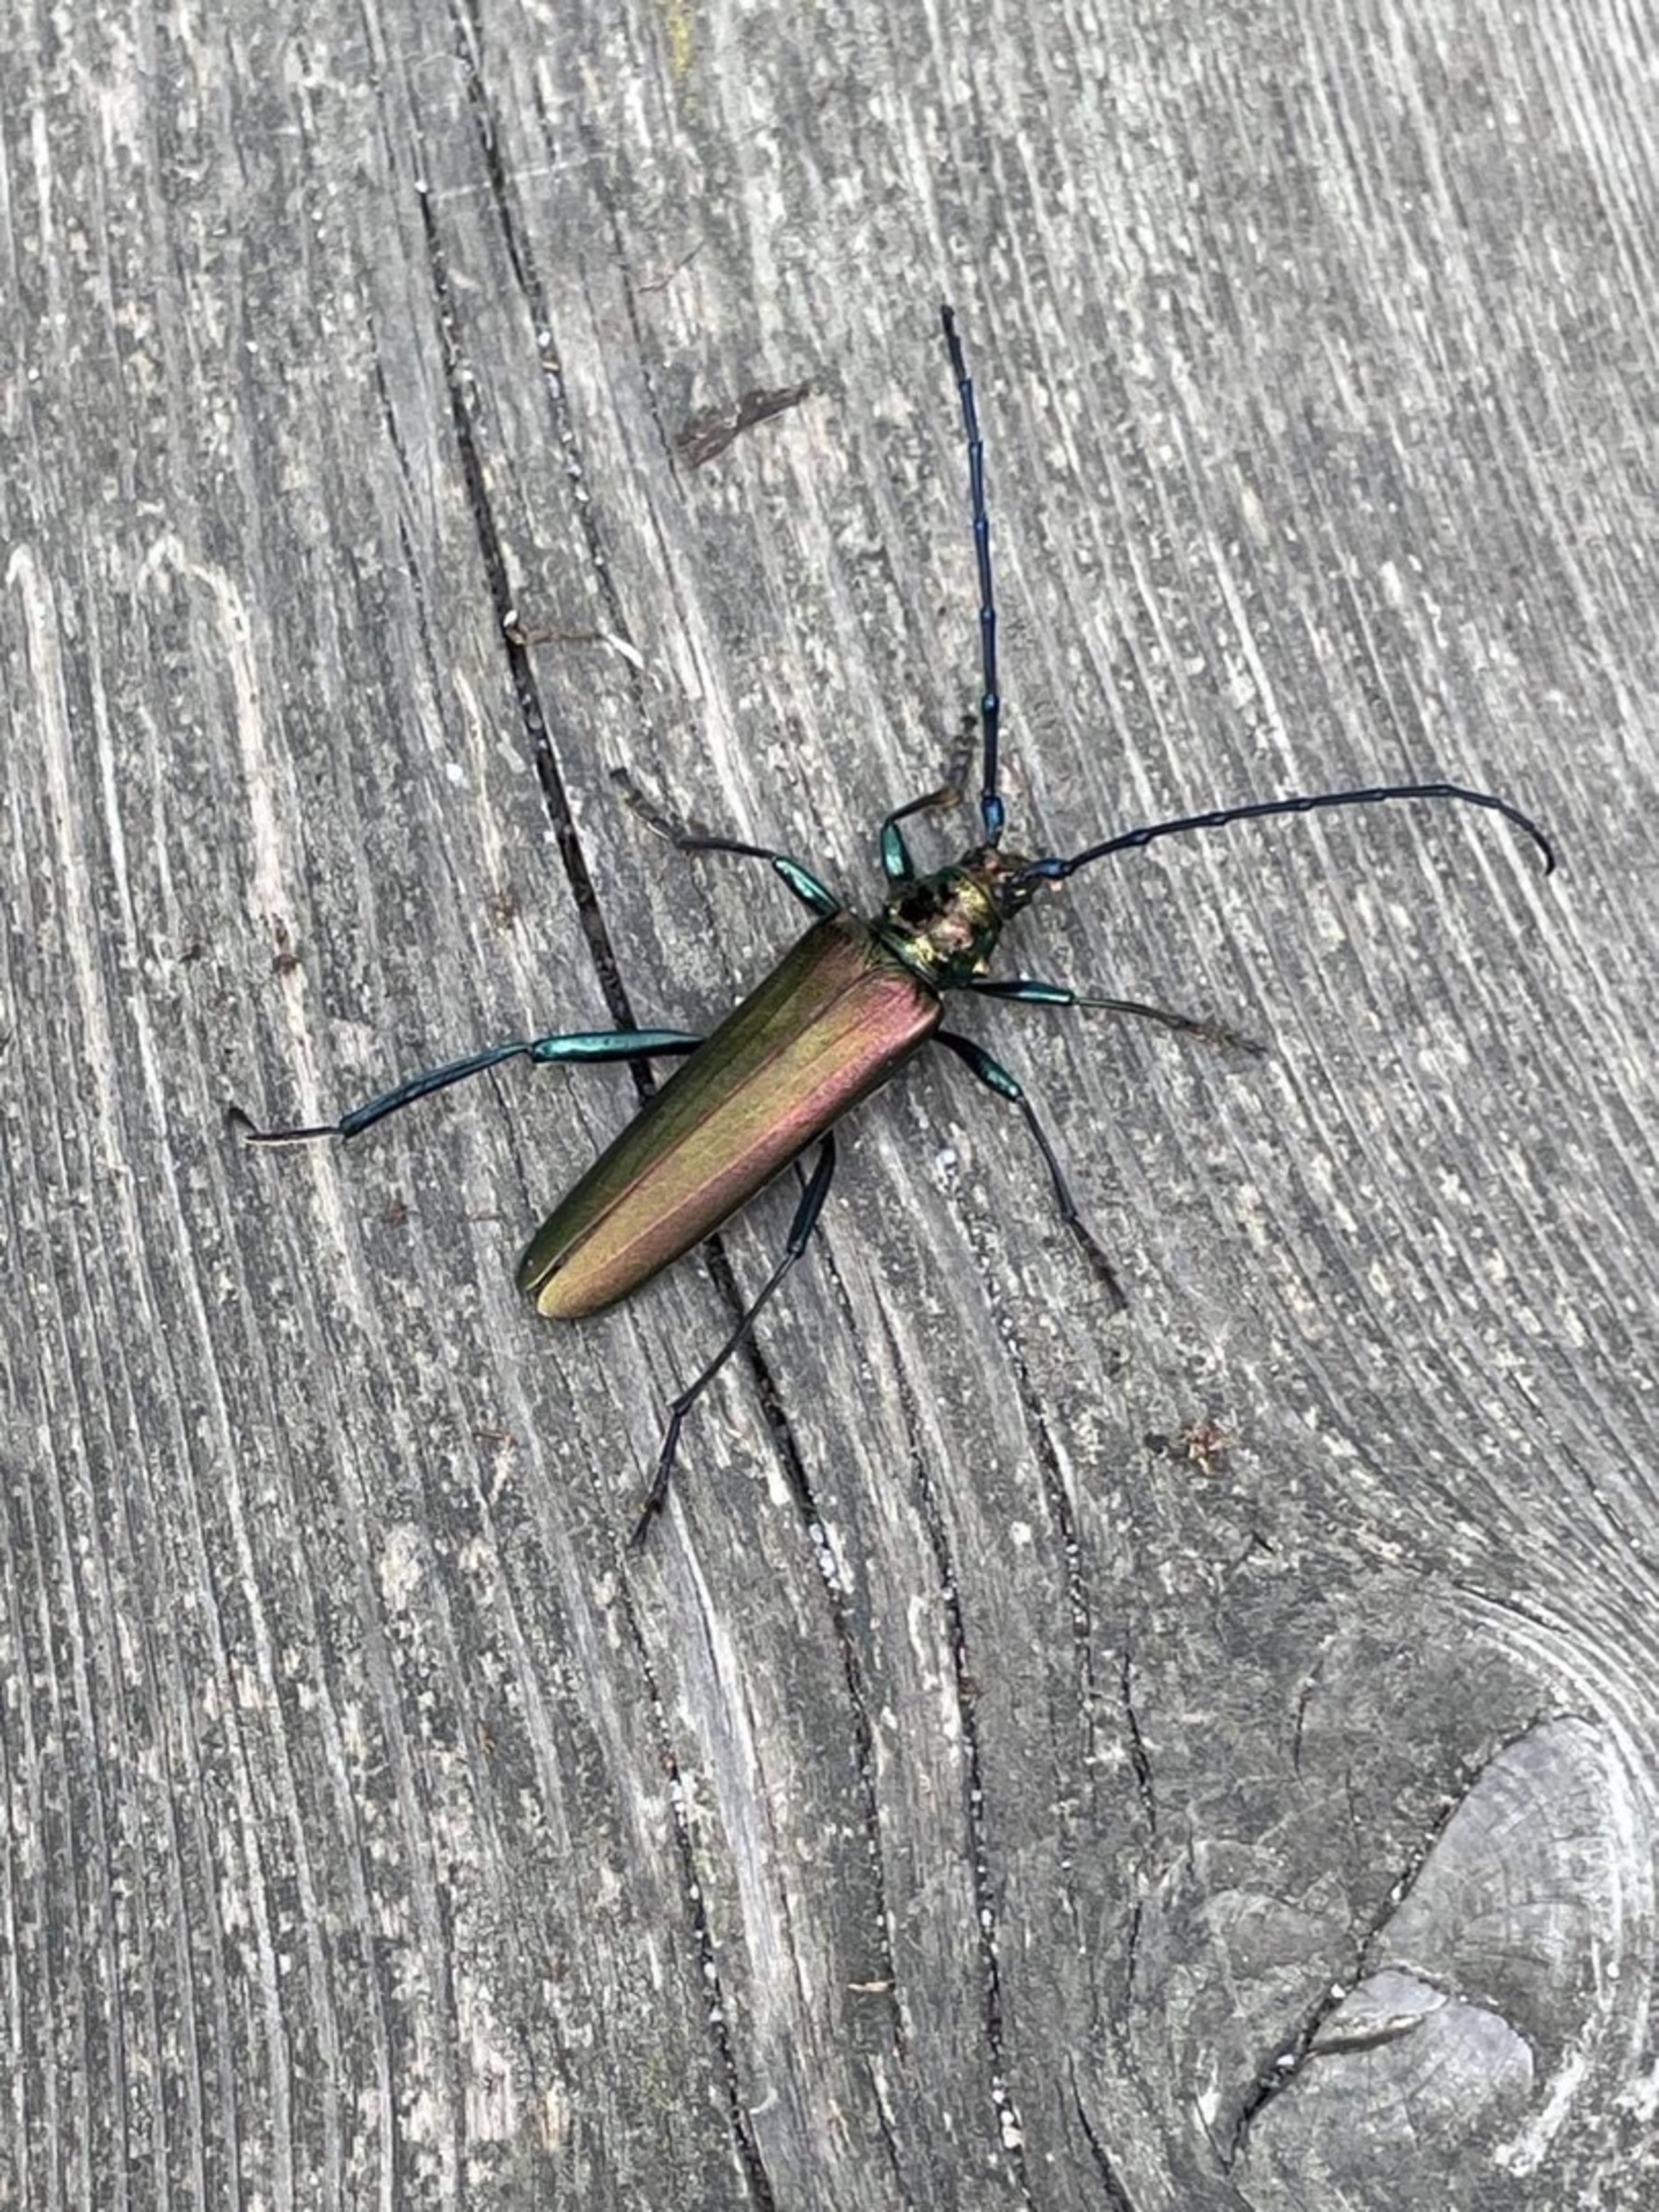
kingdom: Animalia
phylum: Arthropoda
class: Insecta
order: Coleoptera
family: Cerambycidae
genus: Aromia
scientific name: Aromia moschata
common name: Moskusbuk
